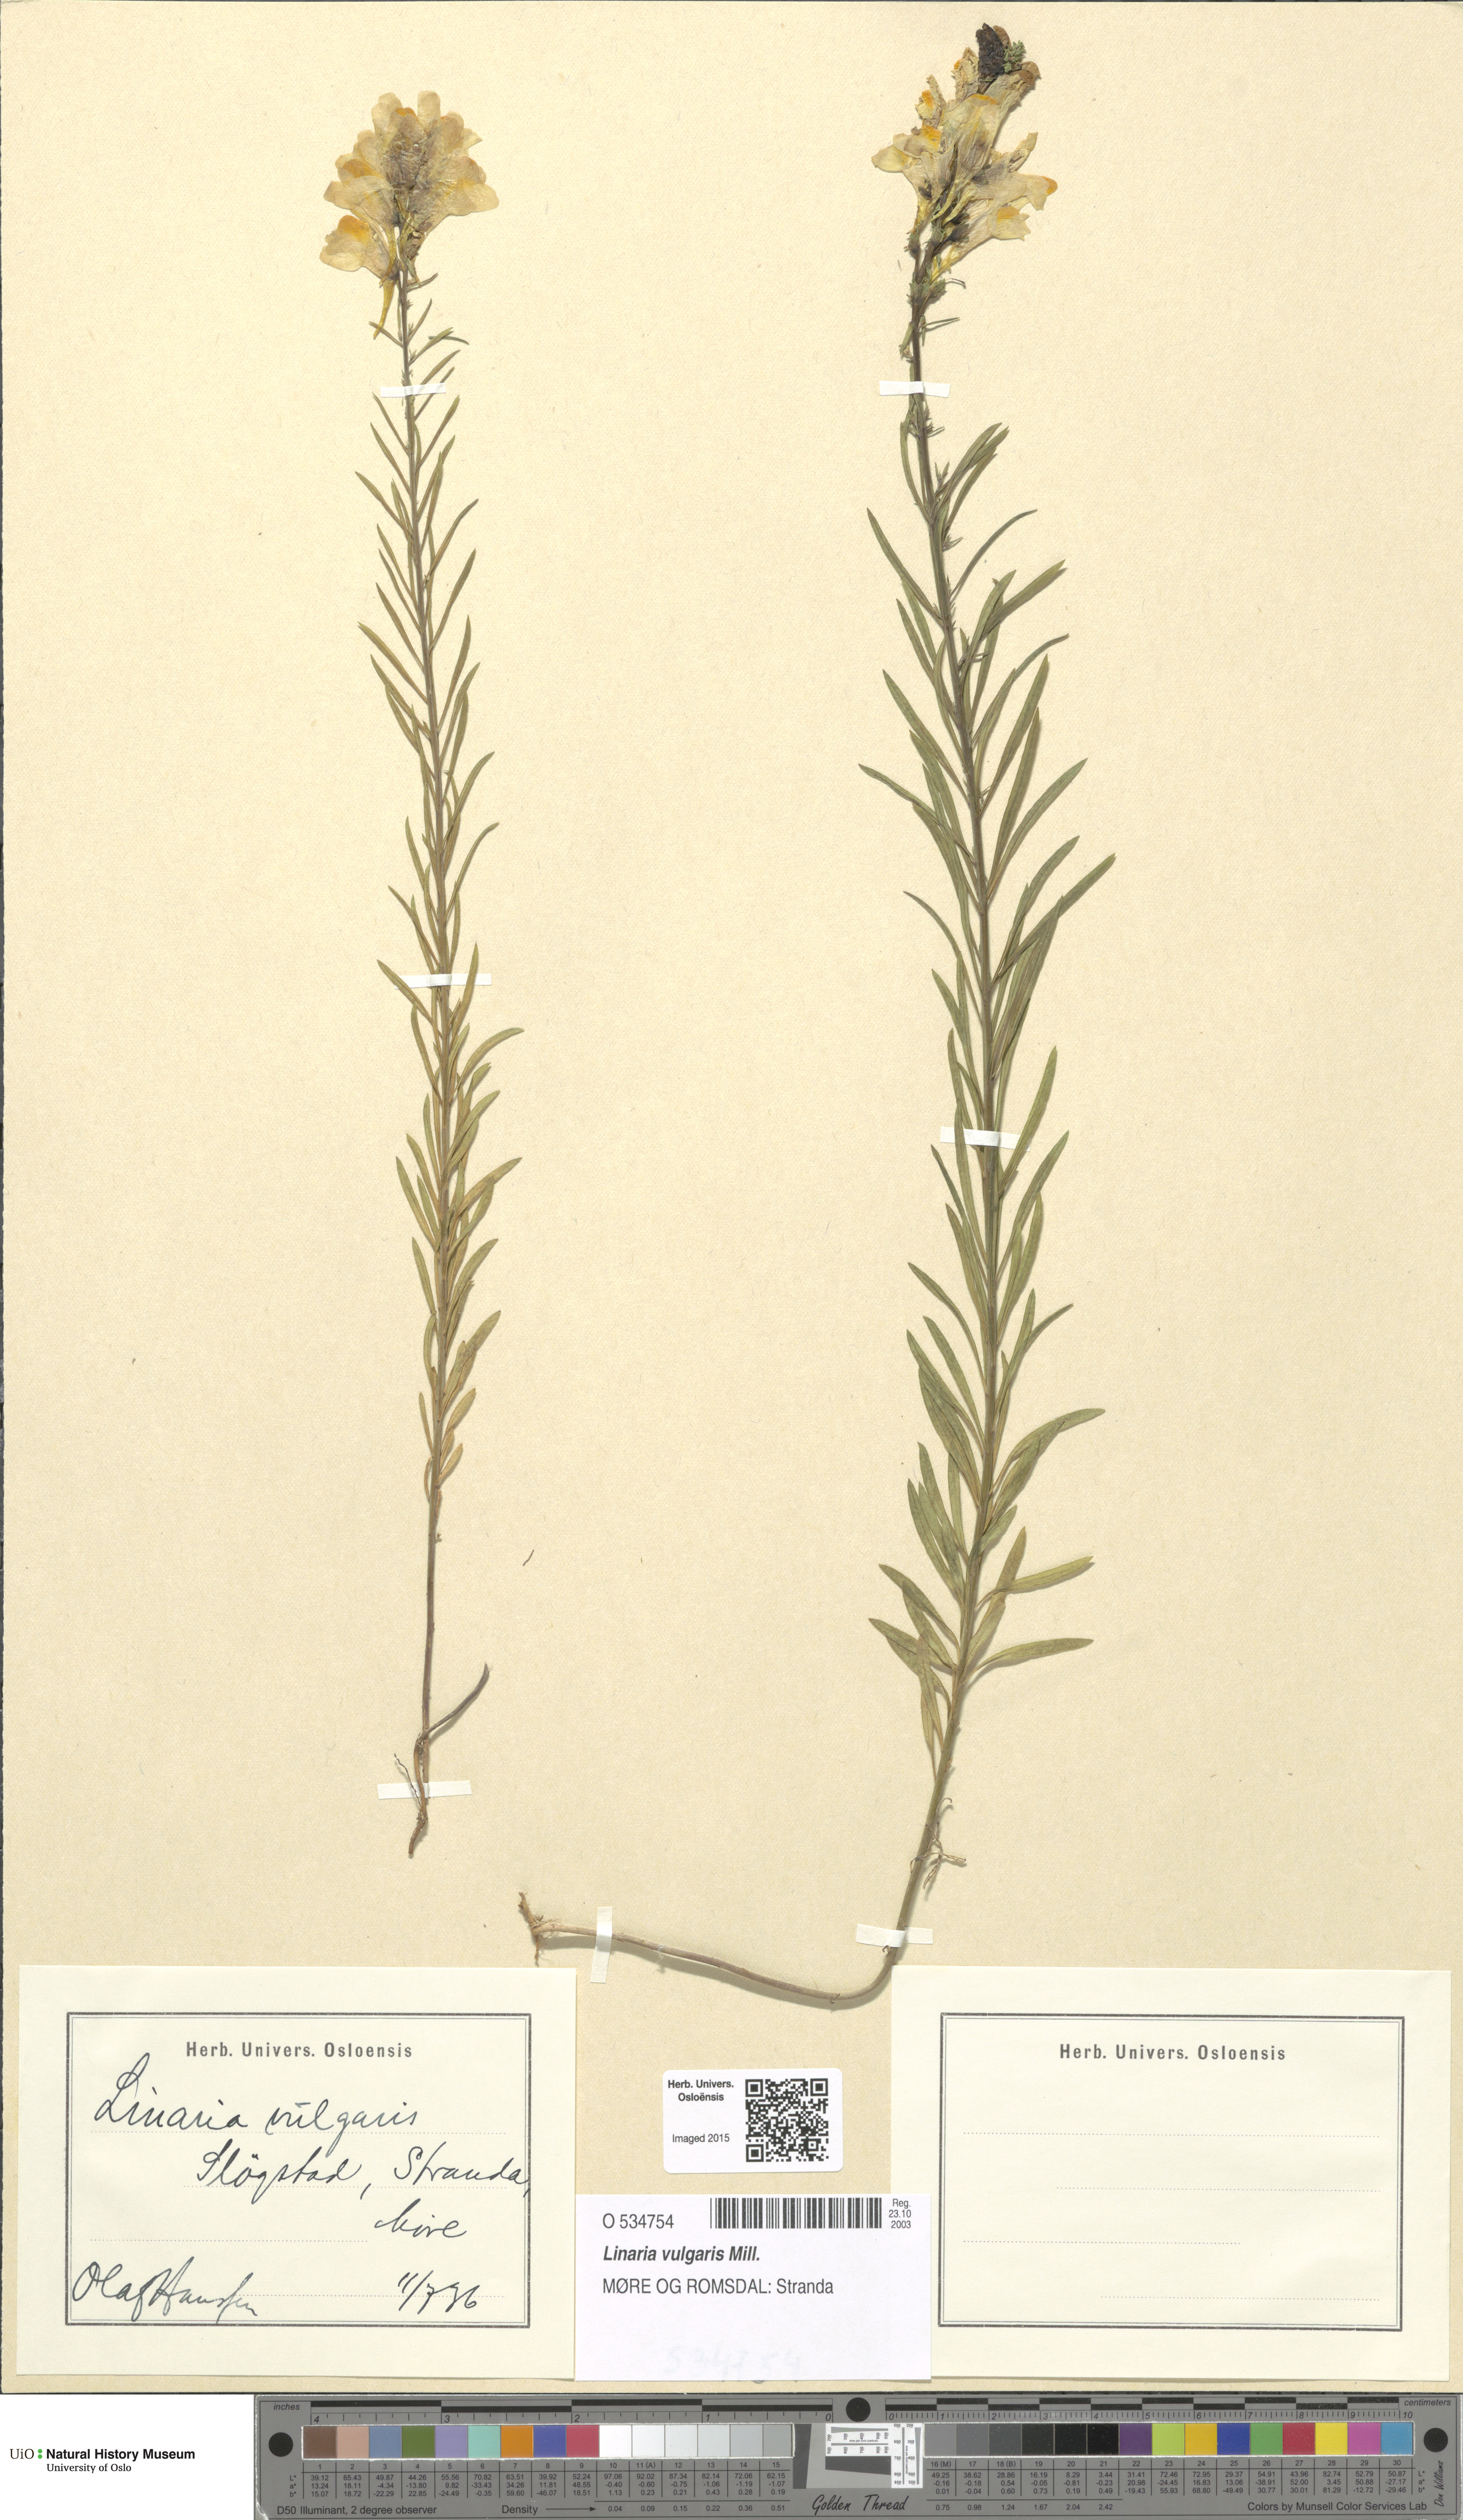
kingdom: Plantae
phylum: Tracheophyta
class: Magnoliopsida
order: Lamiales
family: Plantaginaceae
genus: Linaria
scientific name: Linaria vulgaris
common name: Butter and eggs
